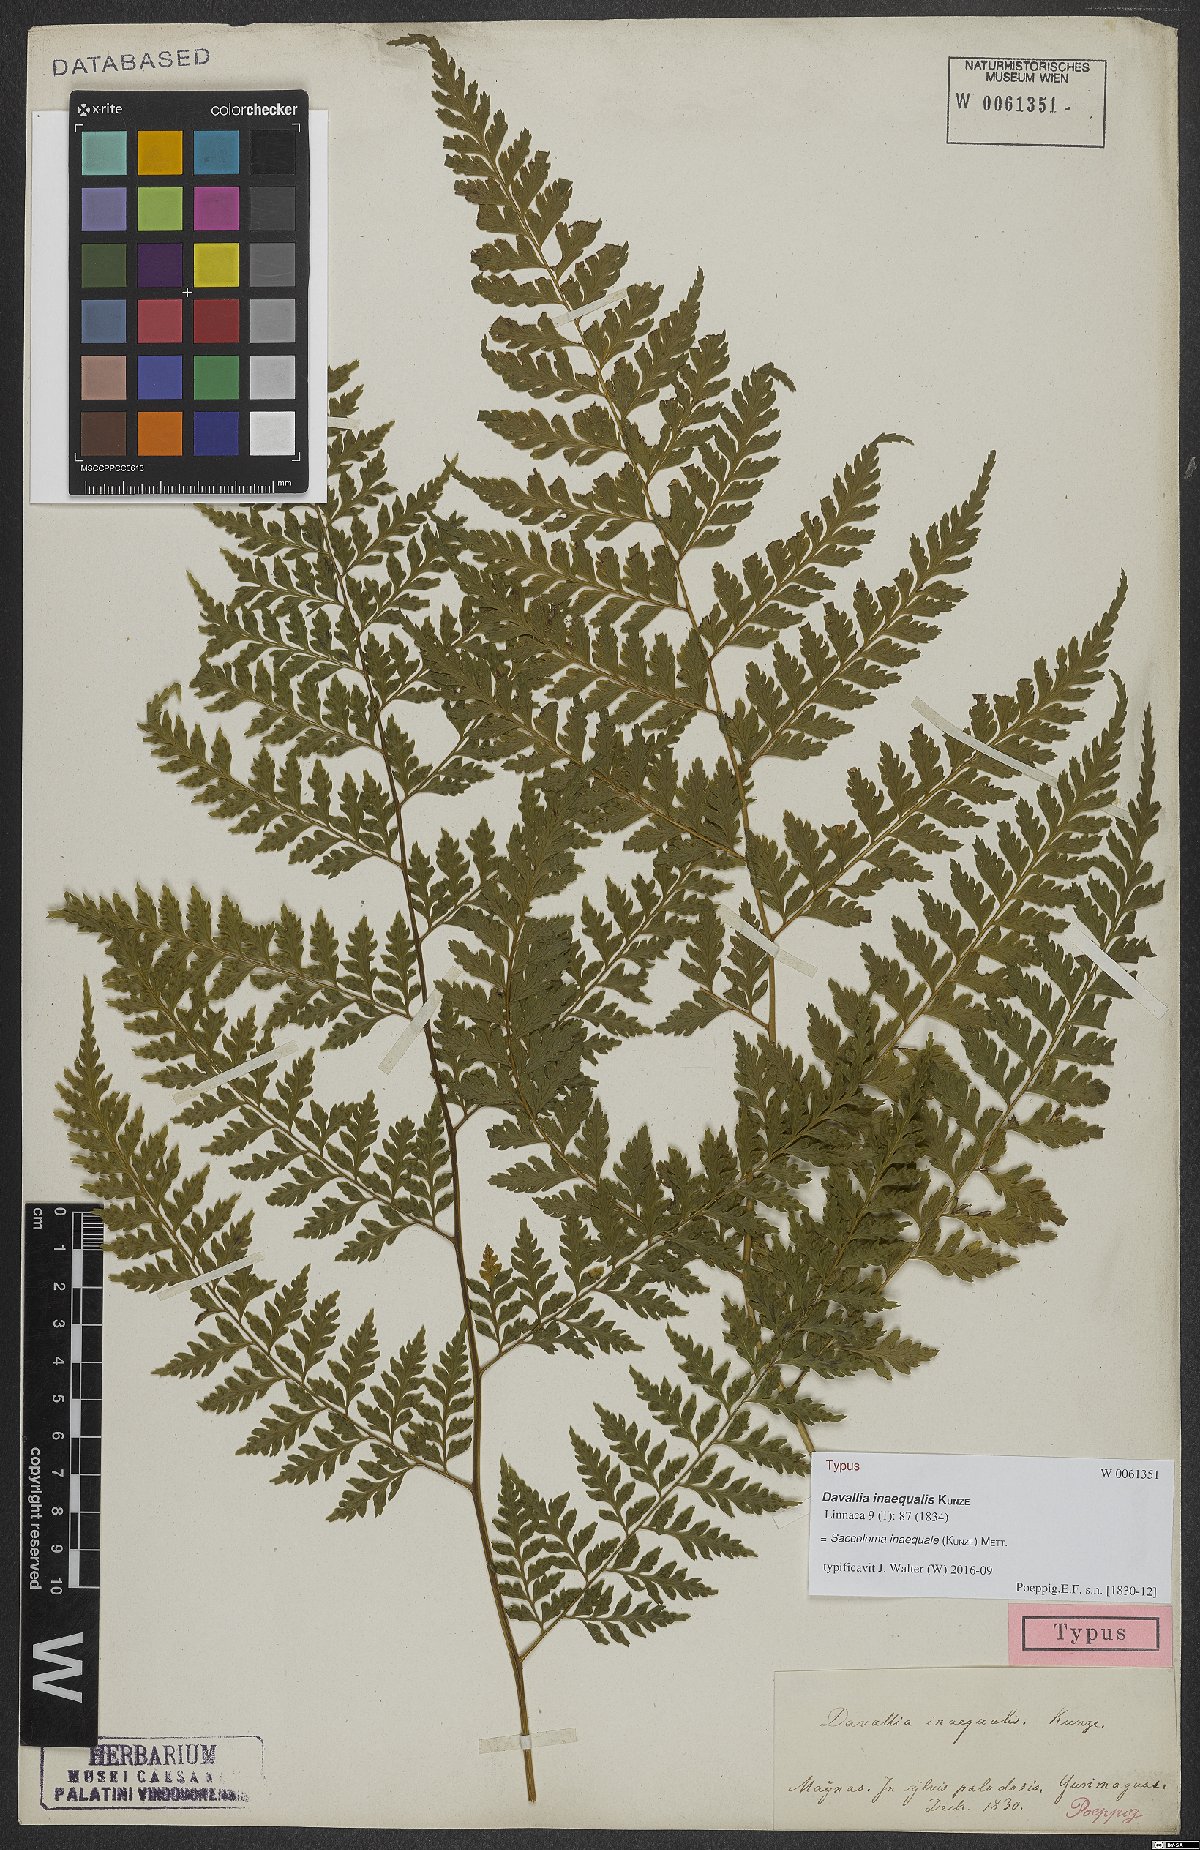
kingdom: Plantae
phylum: Tracheophyta
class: Polypodiopsida
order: Polypodiales
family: Saccolomataceae
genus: Saccoloma
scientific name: Saccoloma inaequale
